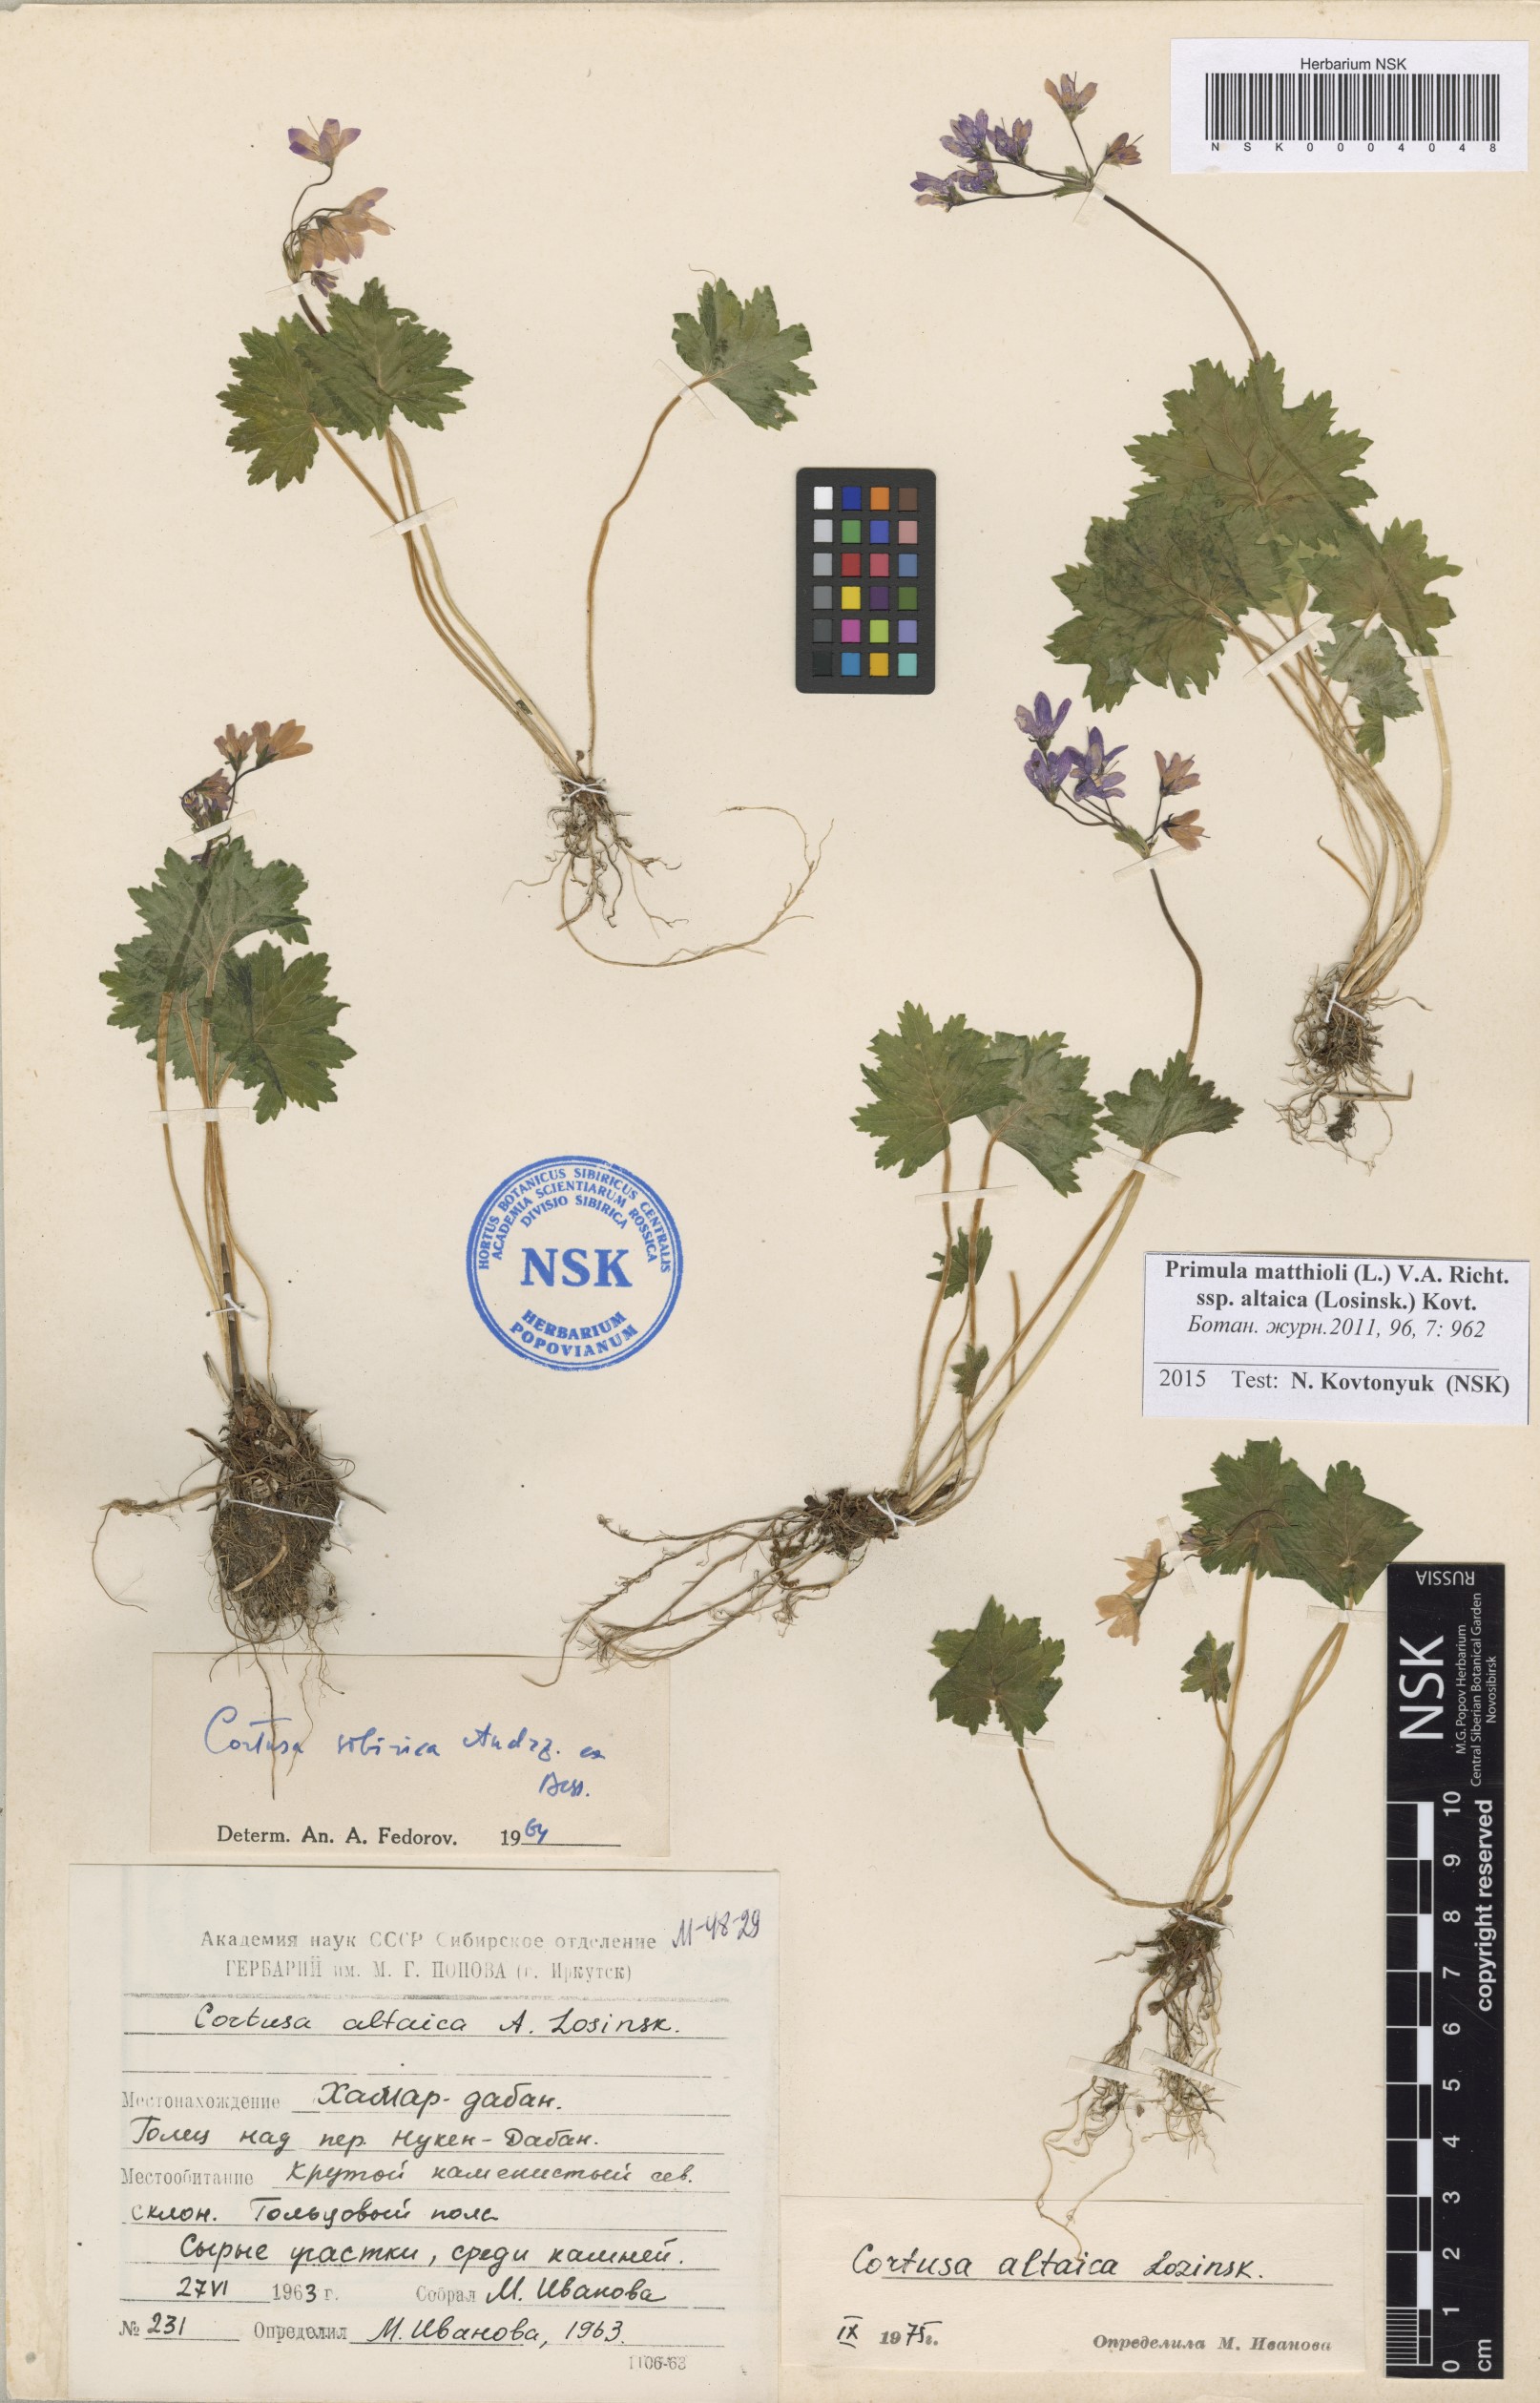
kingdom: Plantae
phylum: Tracheophyta
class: Magnoliopsida
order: Ericales
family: Primulaceae
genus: Primula
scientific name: Primula matthioli
